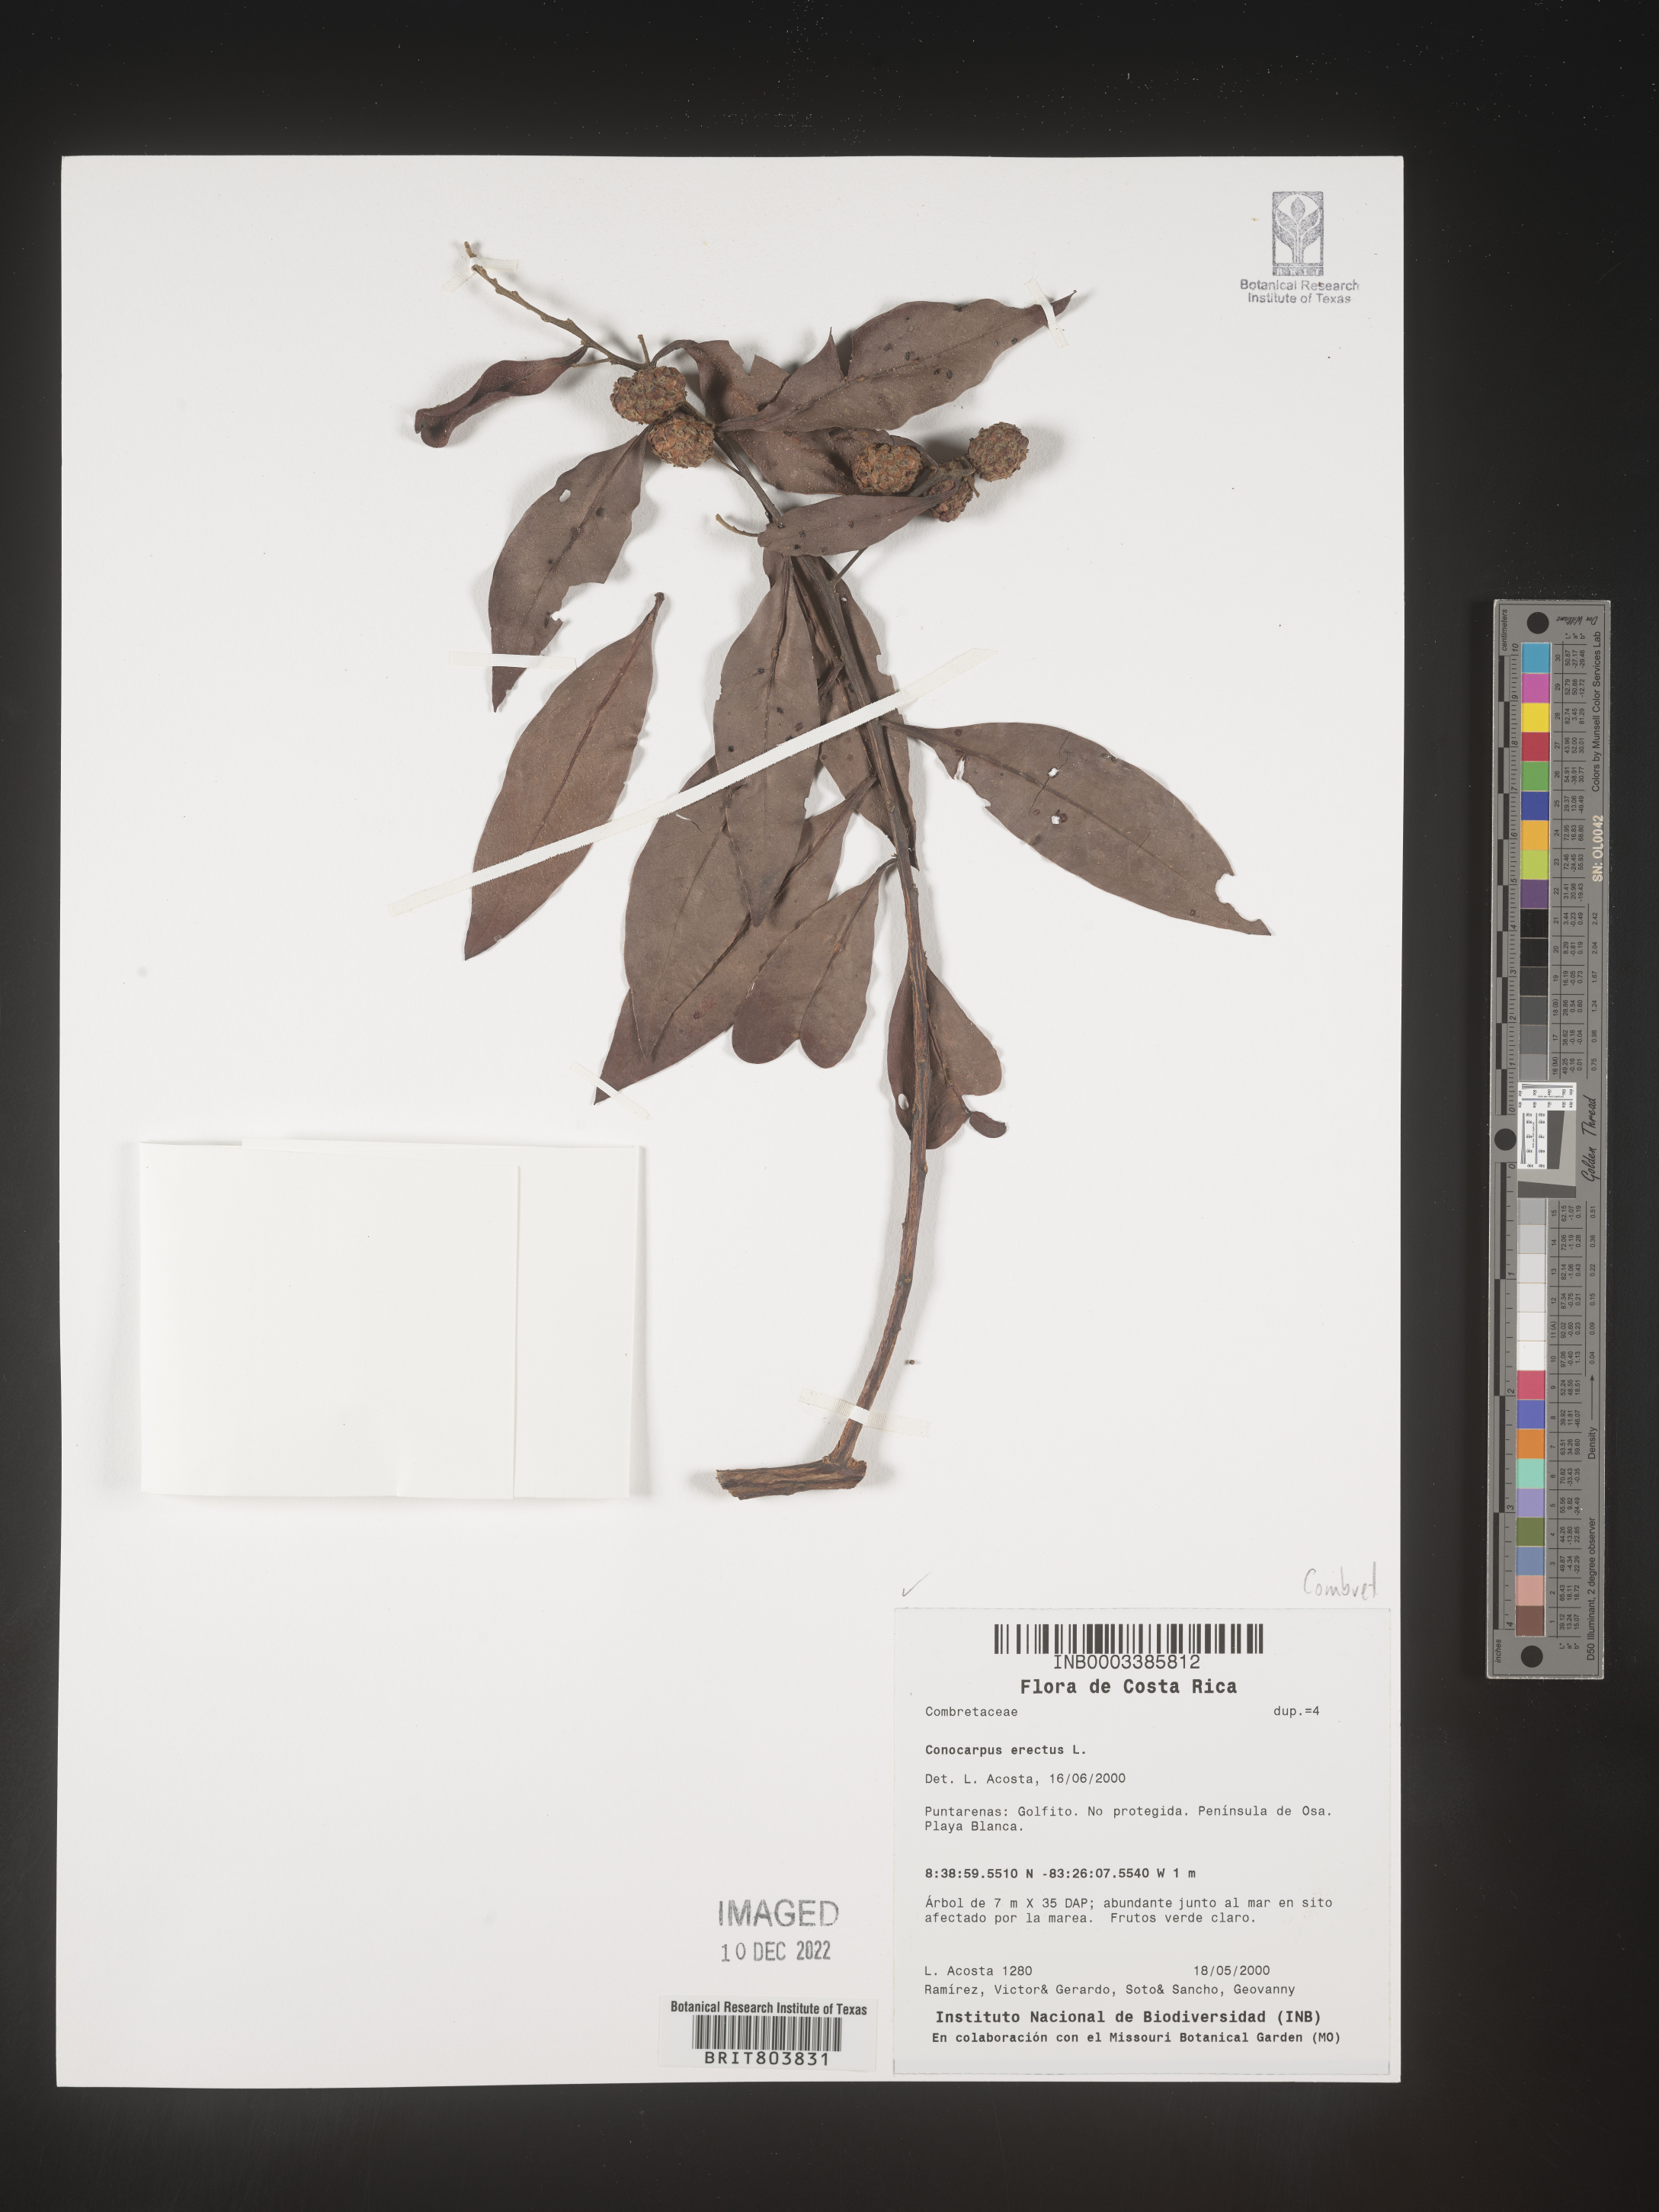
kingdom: Plantae
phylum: Tracheophyta
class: Magnoliopsida
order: Myrtales
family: Combretaceae
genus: Conocarpus
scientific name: Conocarpus
